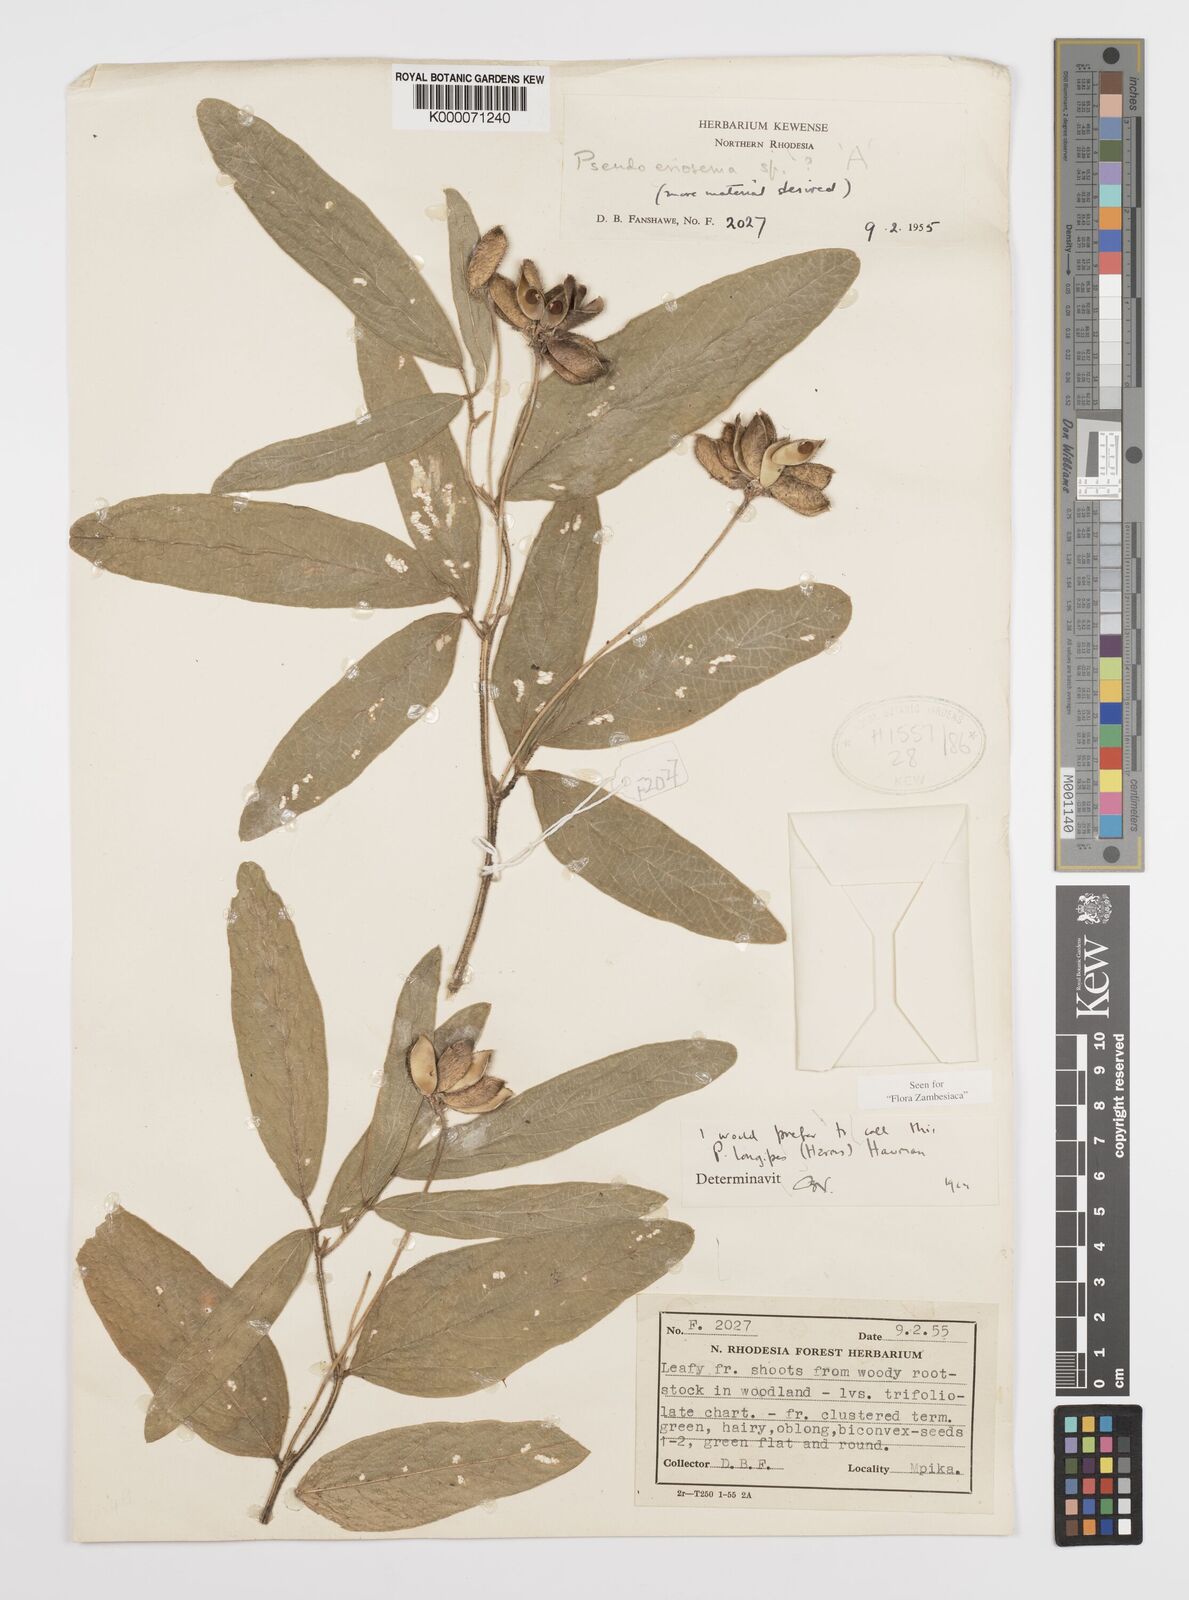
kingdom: Plantae
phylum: Tracheophyta
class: Magnoliopsida
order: Fabales
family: Fabaceae
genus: Pseudoeriosema
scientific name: Pseudoeriosema longipes
